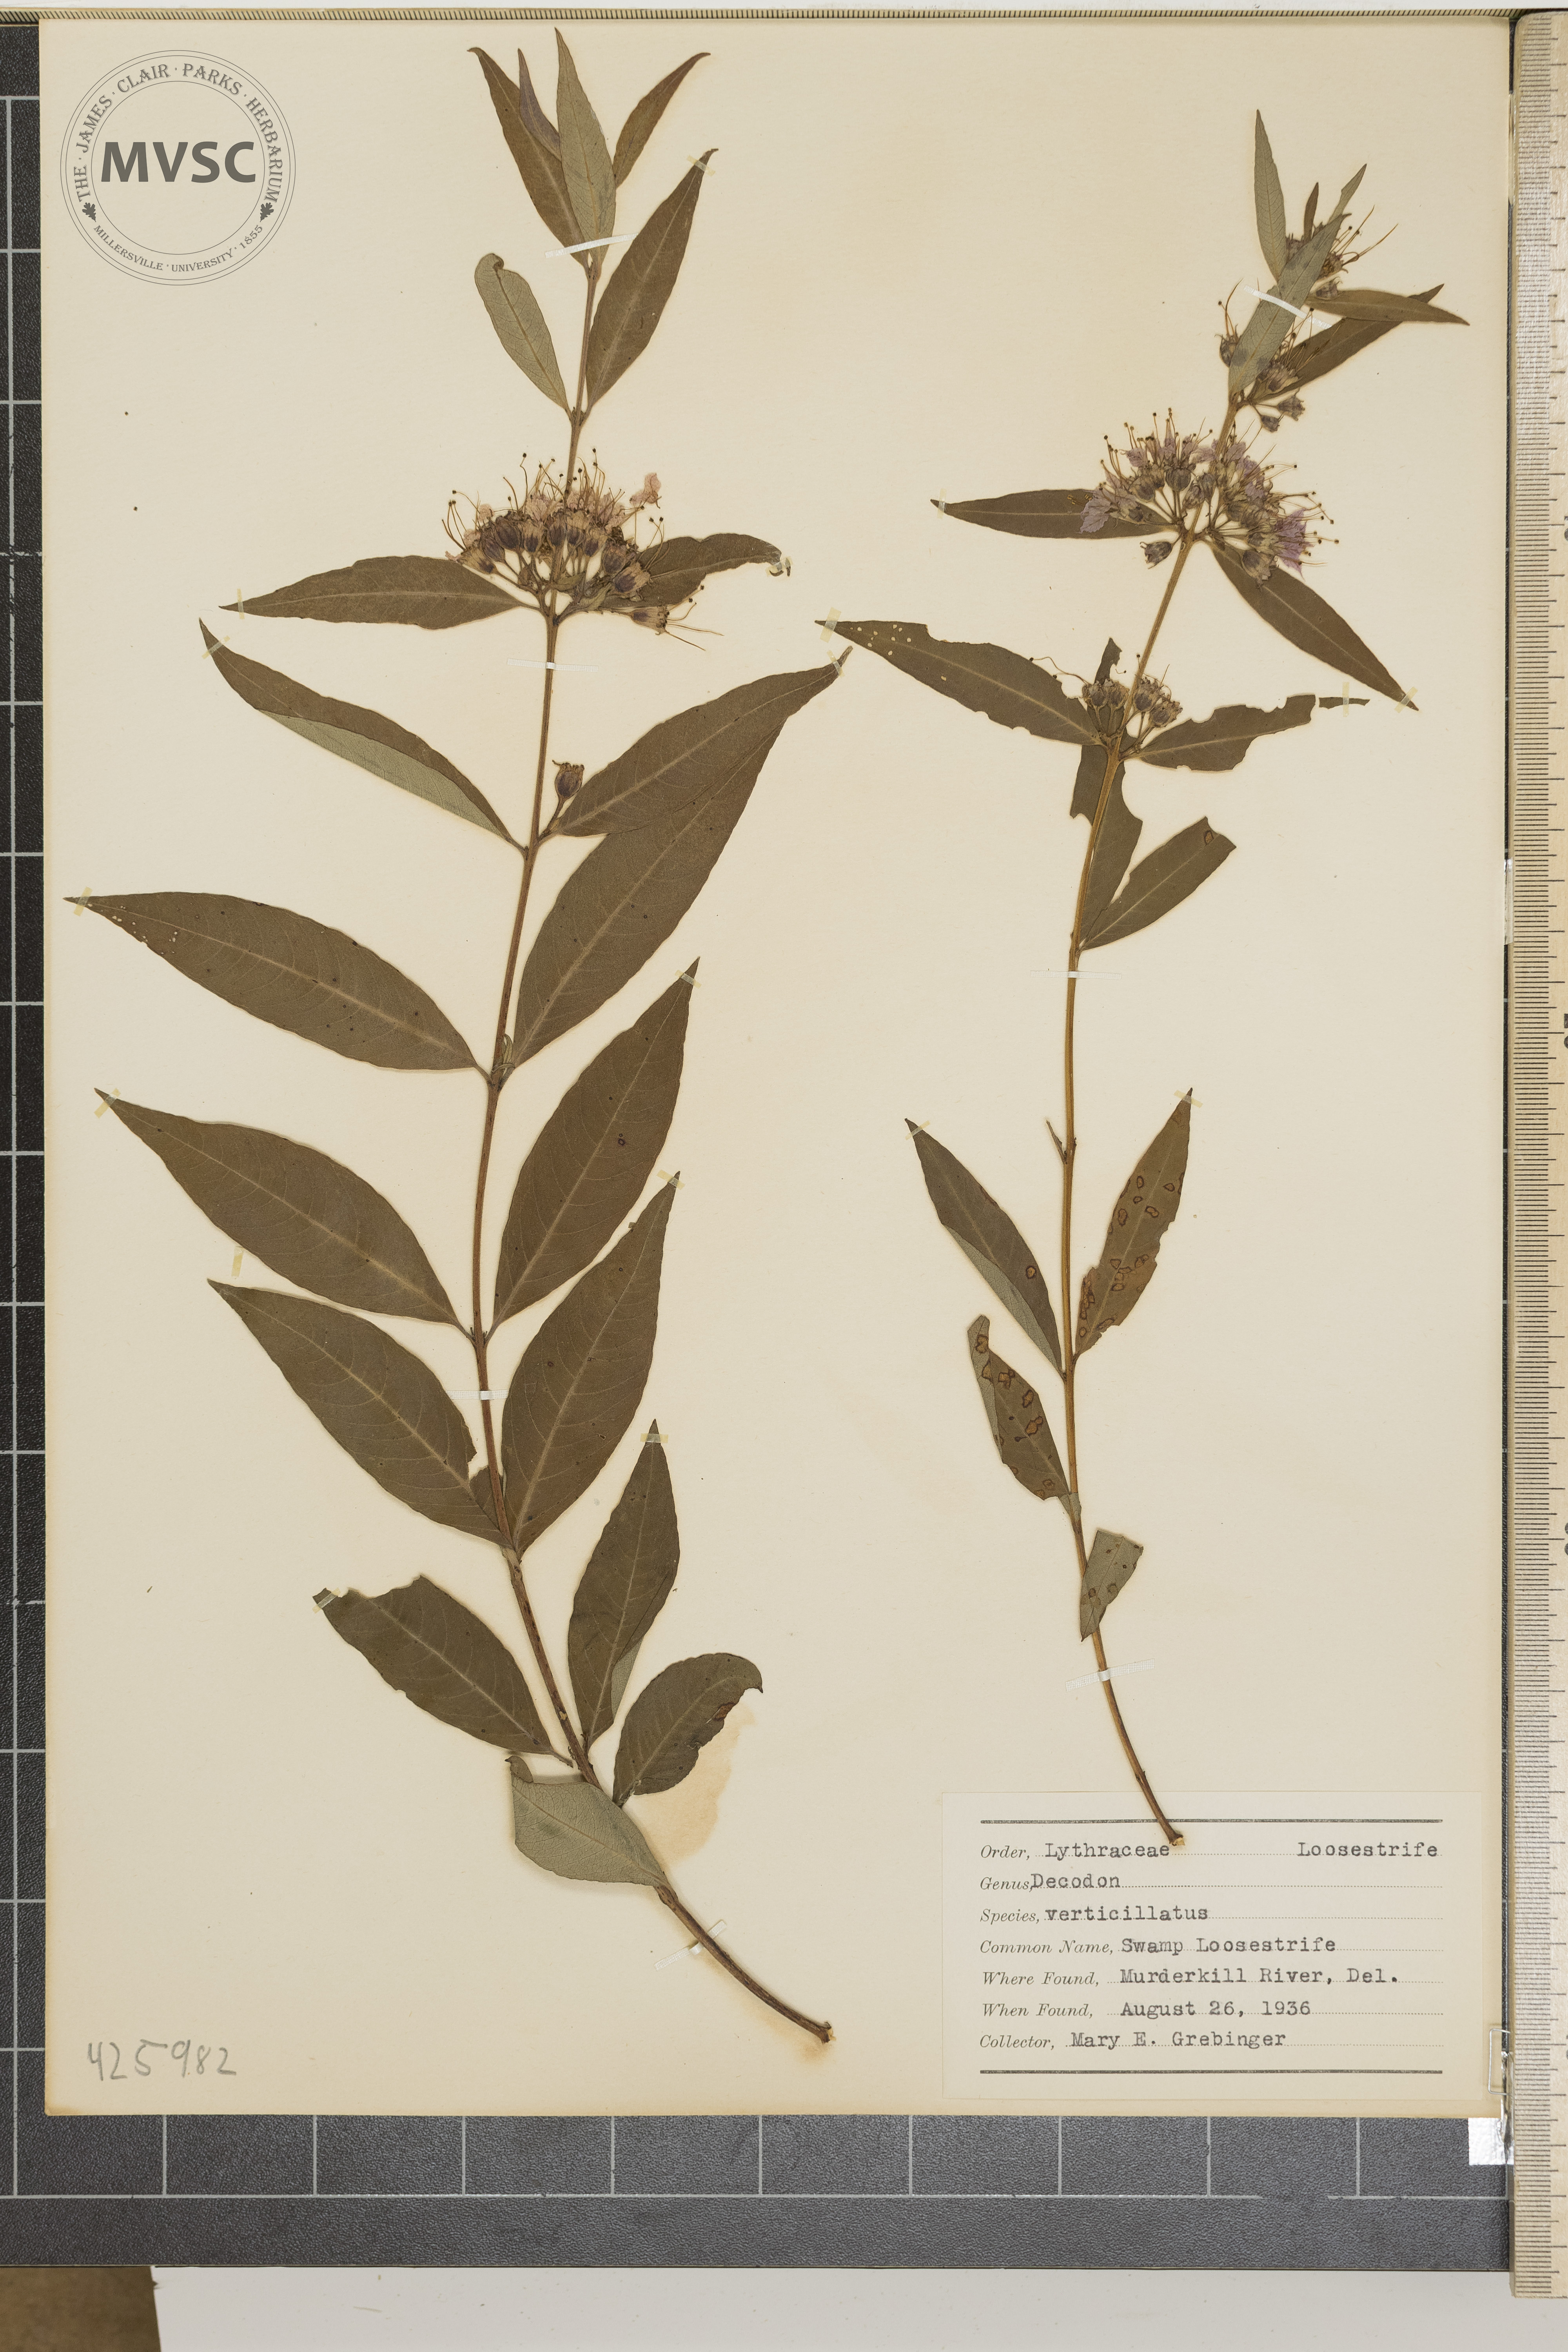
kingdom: Plantae
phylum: Tracheophyta
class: Magnoliopsida
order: Myrtales
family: Lythraceae
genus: Decodon
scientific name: Decodon verticillatus
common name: Swamp Loosestrife
